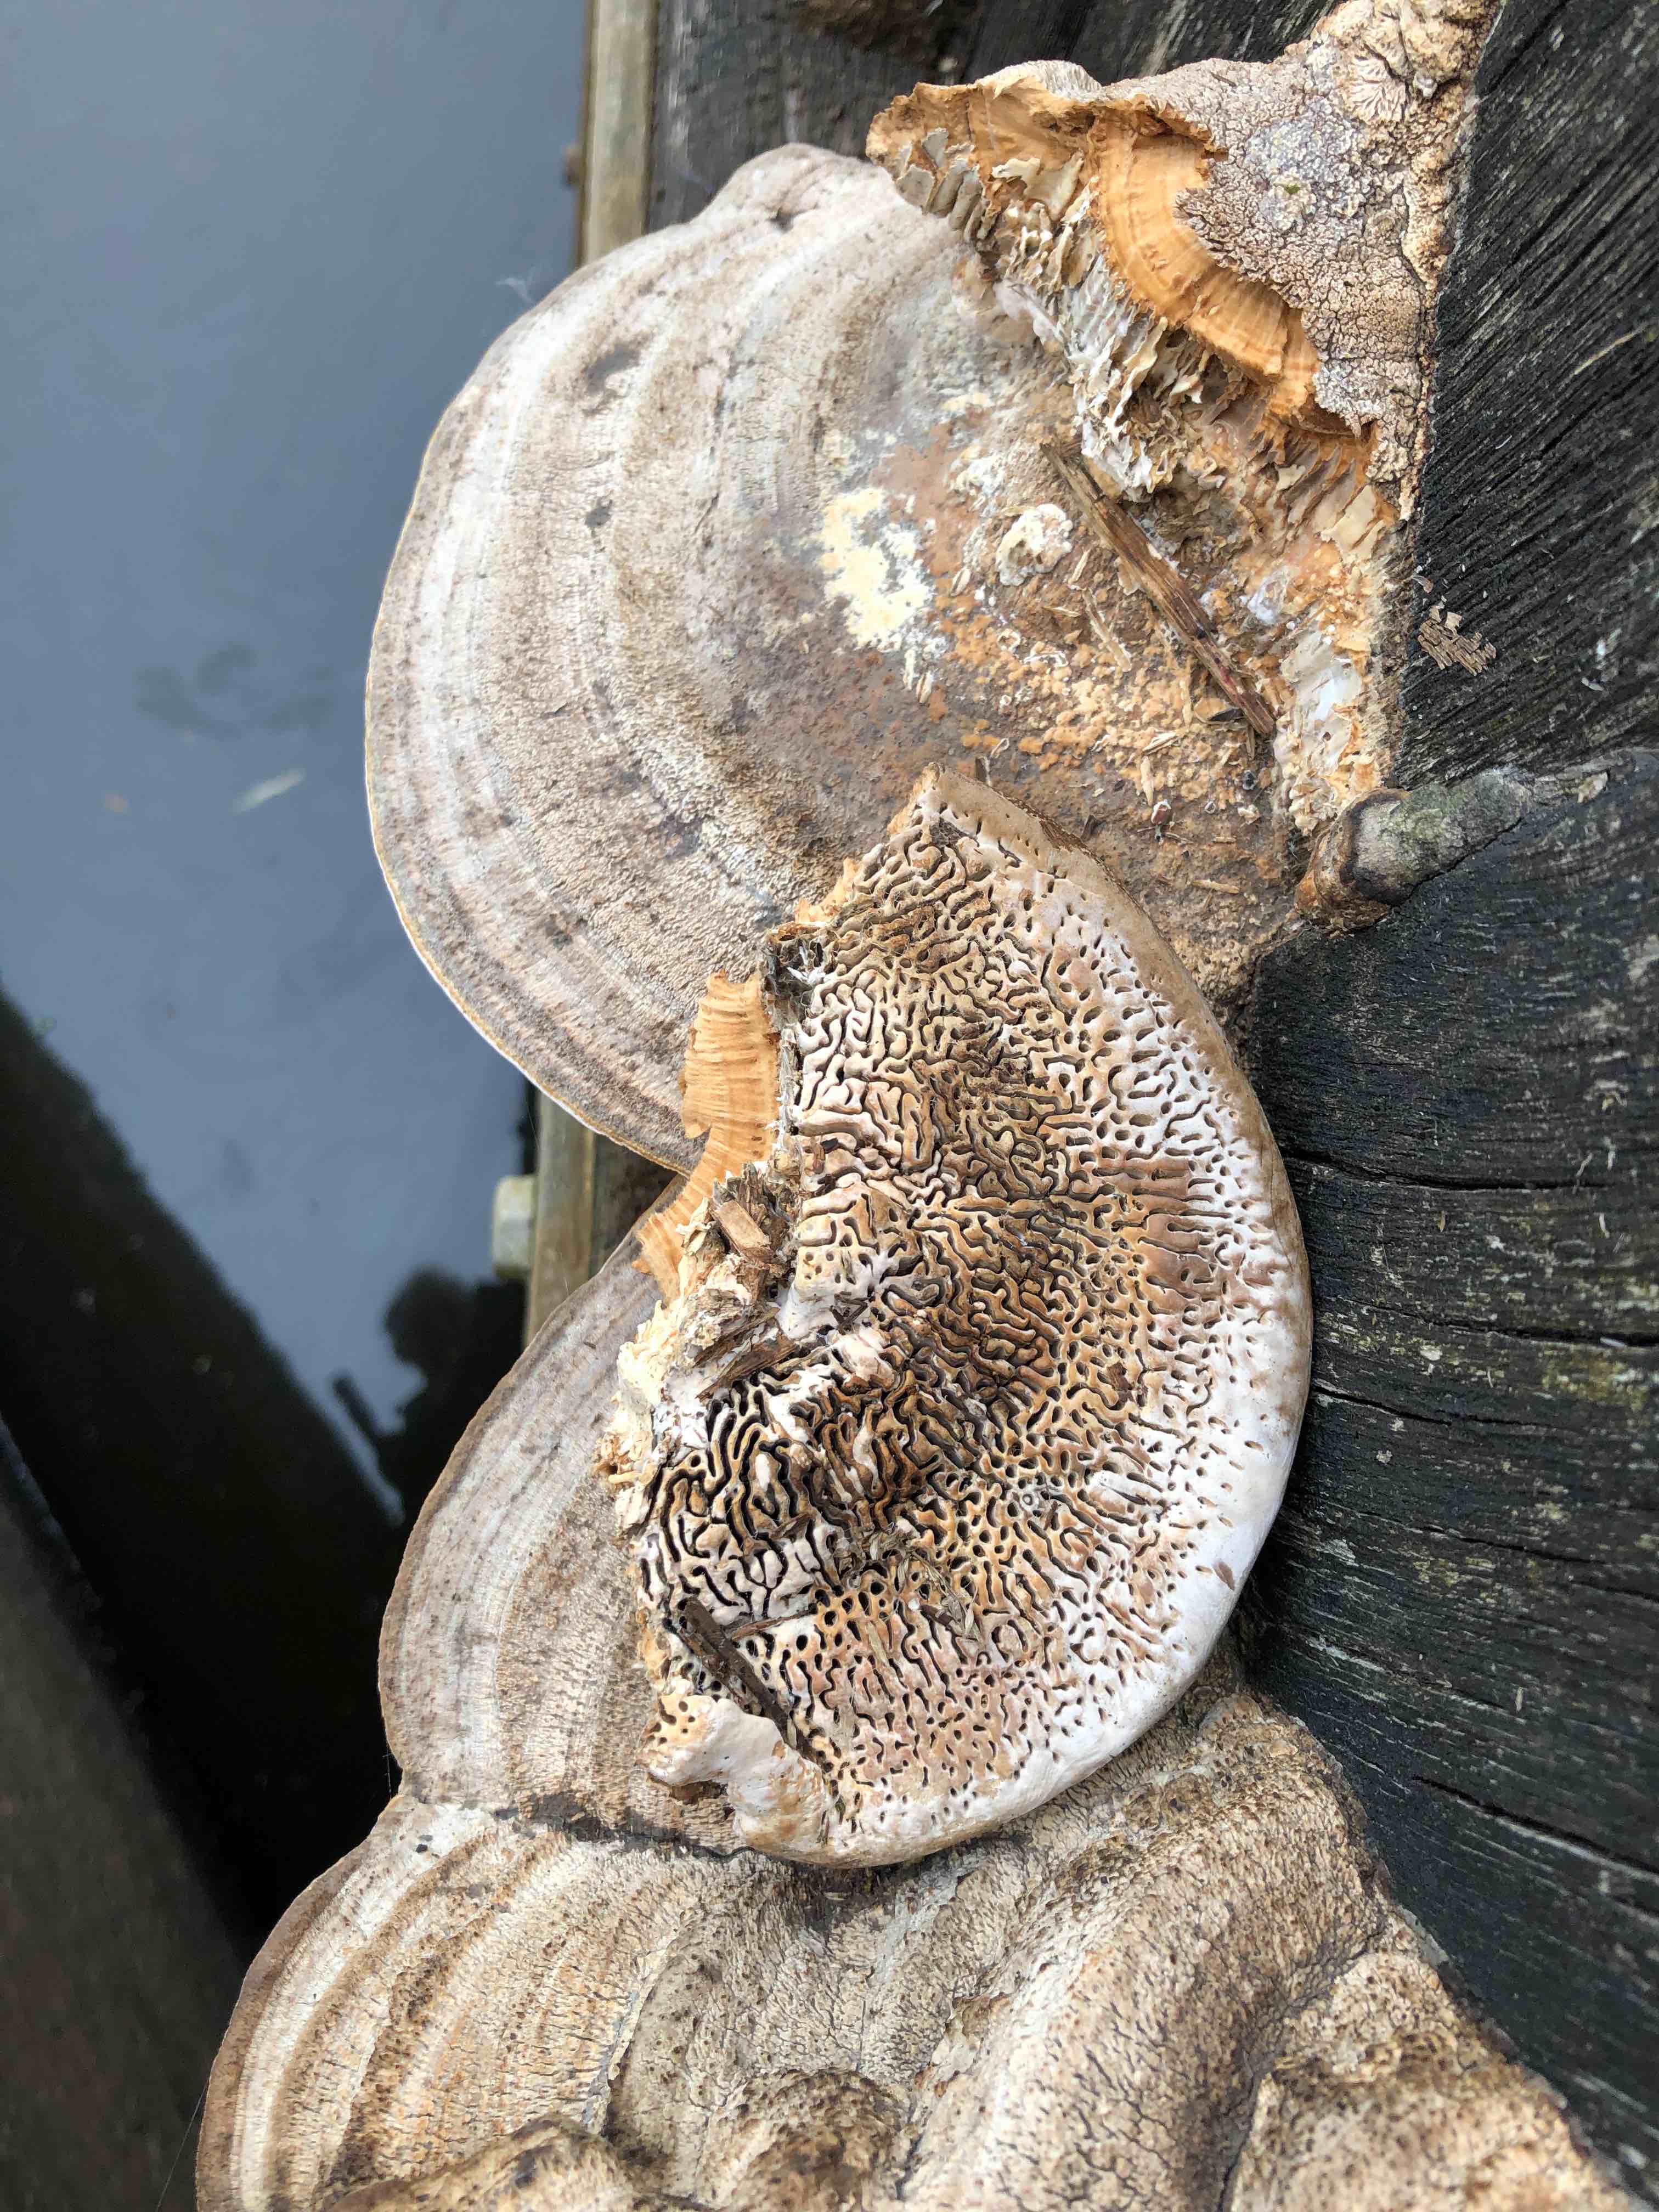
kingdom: Fungi
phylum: Basidiomycota
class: Agaricomycetes
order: Polyporales
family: Fomitopsidaceae
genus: Daedalea
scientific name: Daedalea quercina
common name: ege-labyrintsvamp
